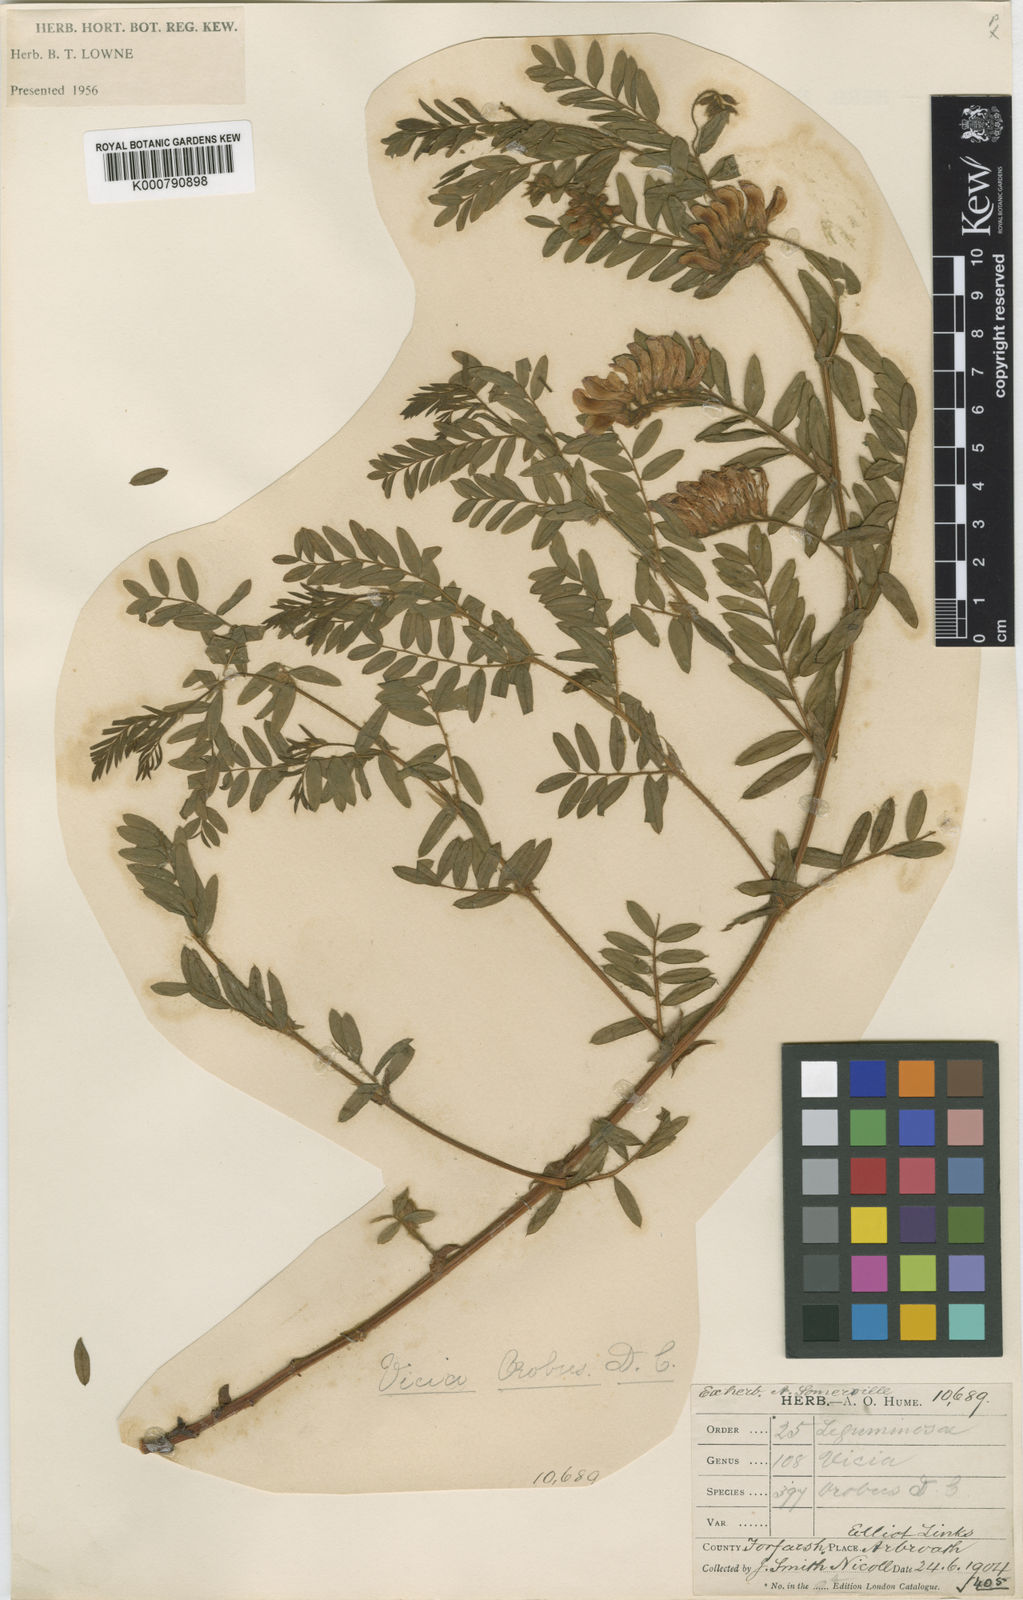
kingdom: Plantae
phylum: Tracheophyta
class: Magnoliopsida
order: Fabales
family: Fabaceae
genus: Vicia
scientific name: Vicia orobus
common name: Wood bitter-vetch
